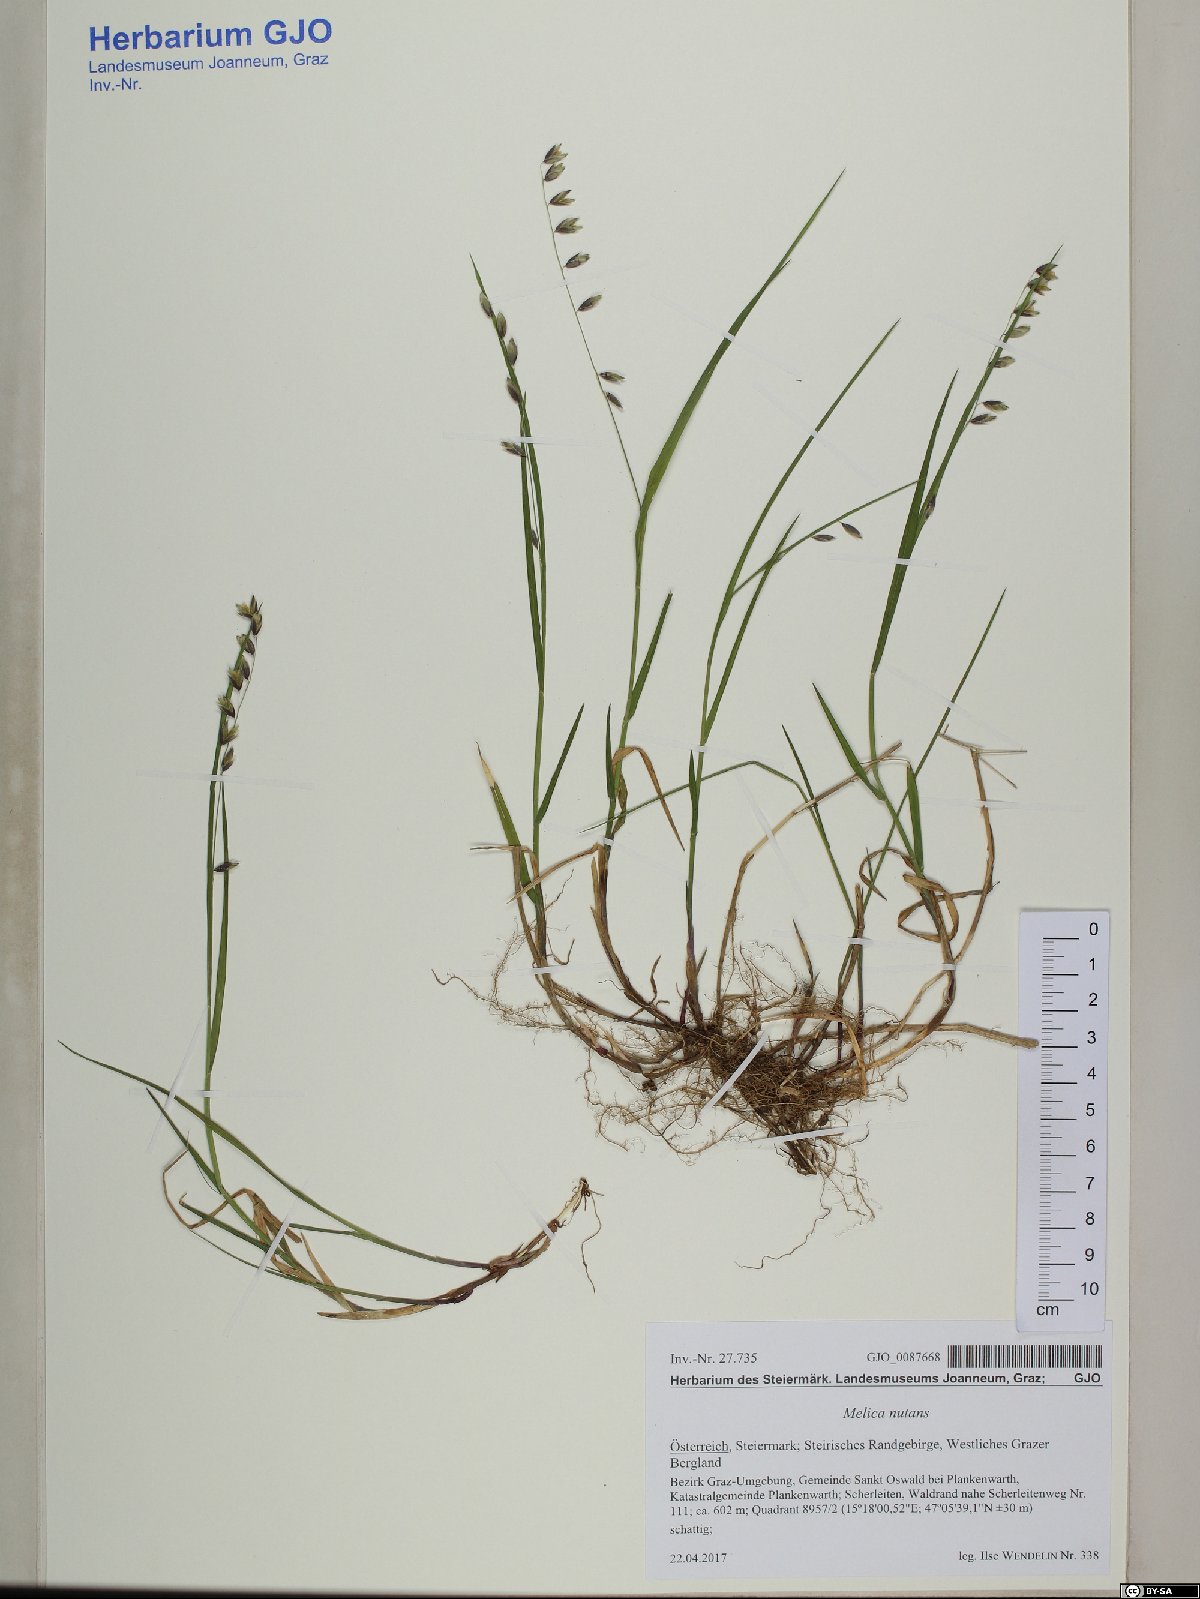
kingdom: Plantae
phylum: Tracheophyta
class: Liliopsida
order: Poales
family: Poaceae
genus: Melica
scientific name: Melica nutans
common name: Mountain melick
